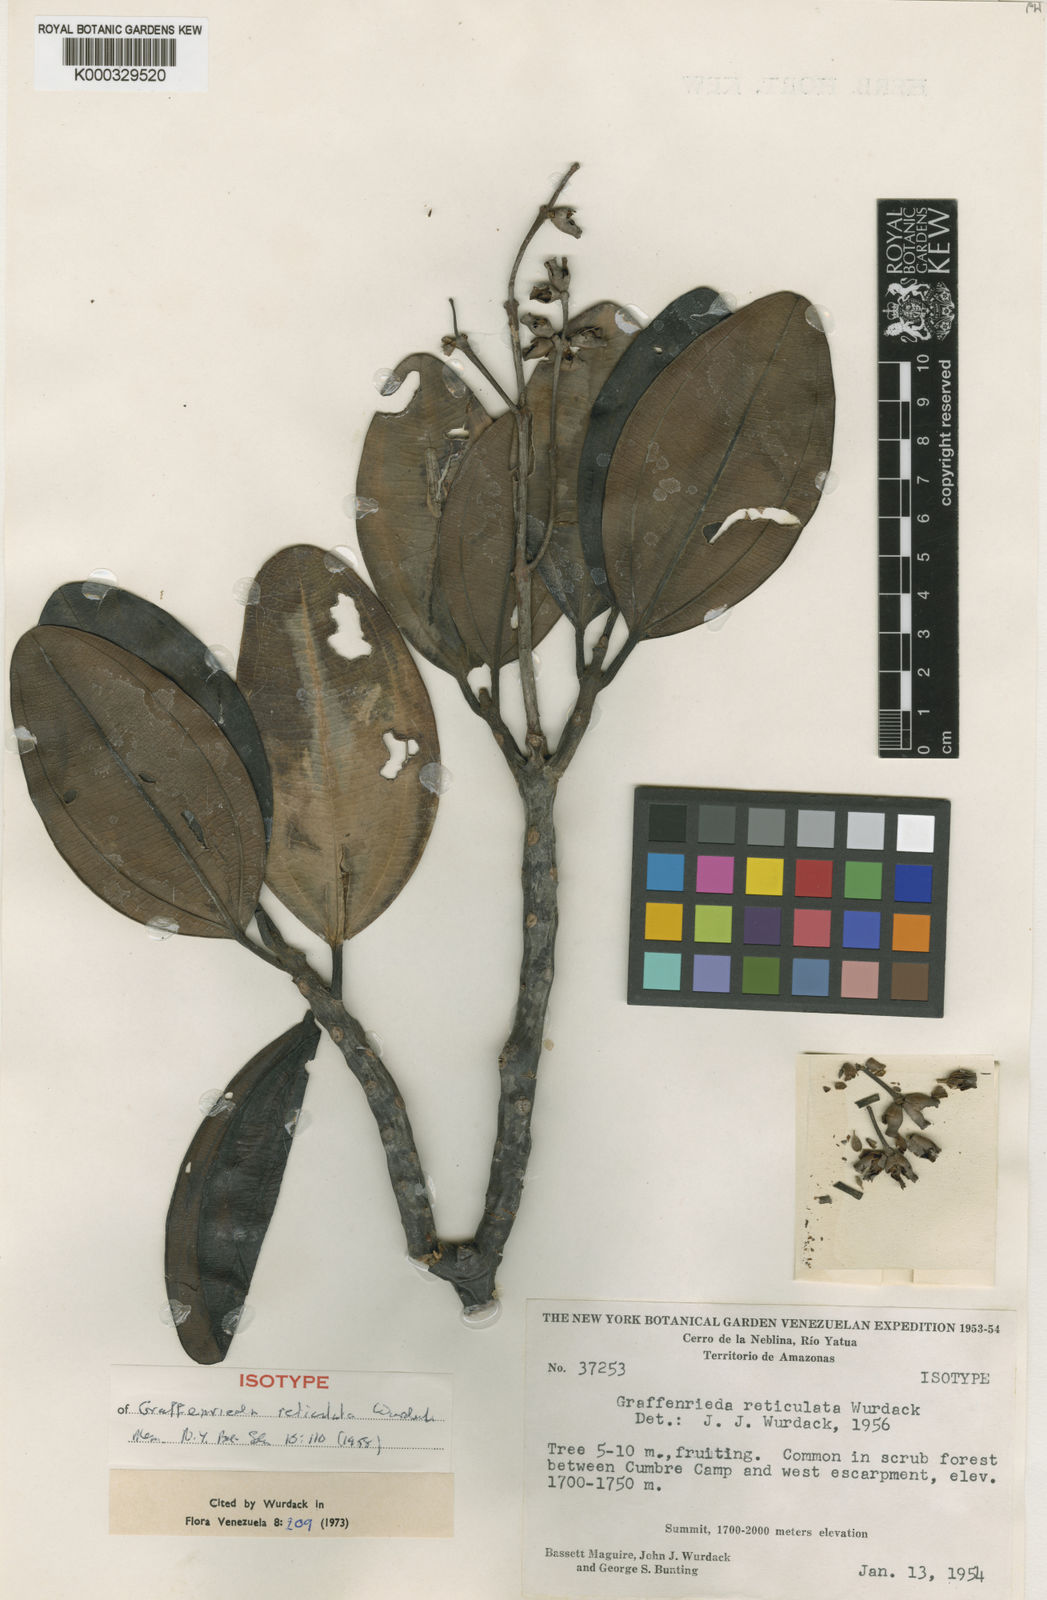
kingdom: Plantae
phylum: Tracheophyta
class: Magnoliopsida
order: Myrtales
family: Melastomataceae
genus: Graffenrieda
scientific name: Graffenrieda reticulata
